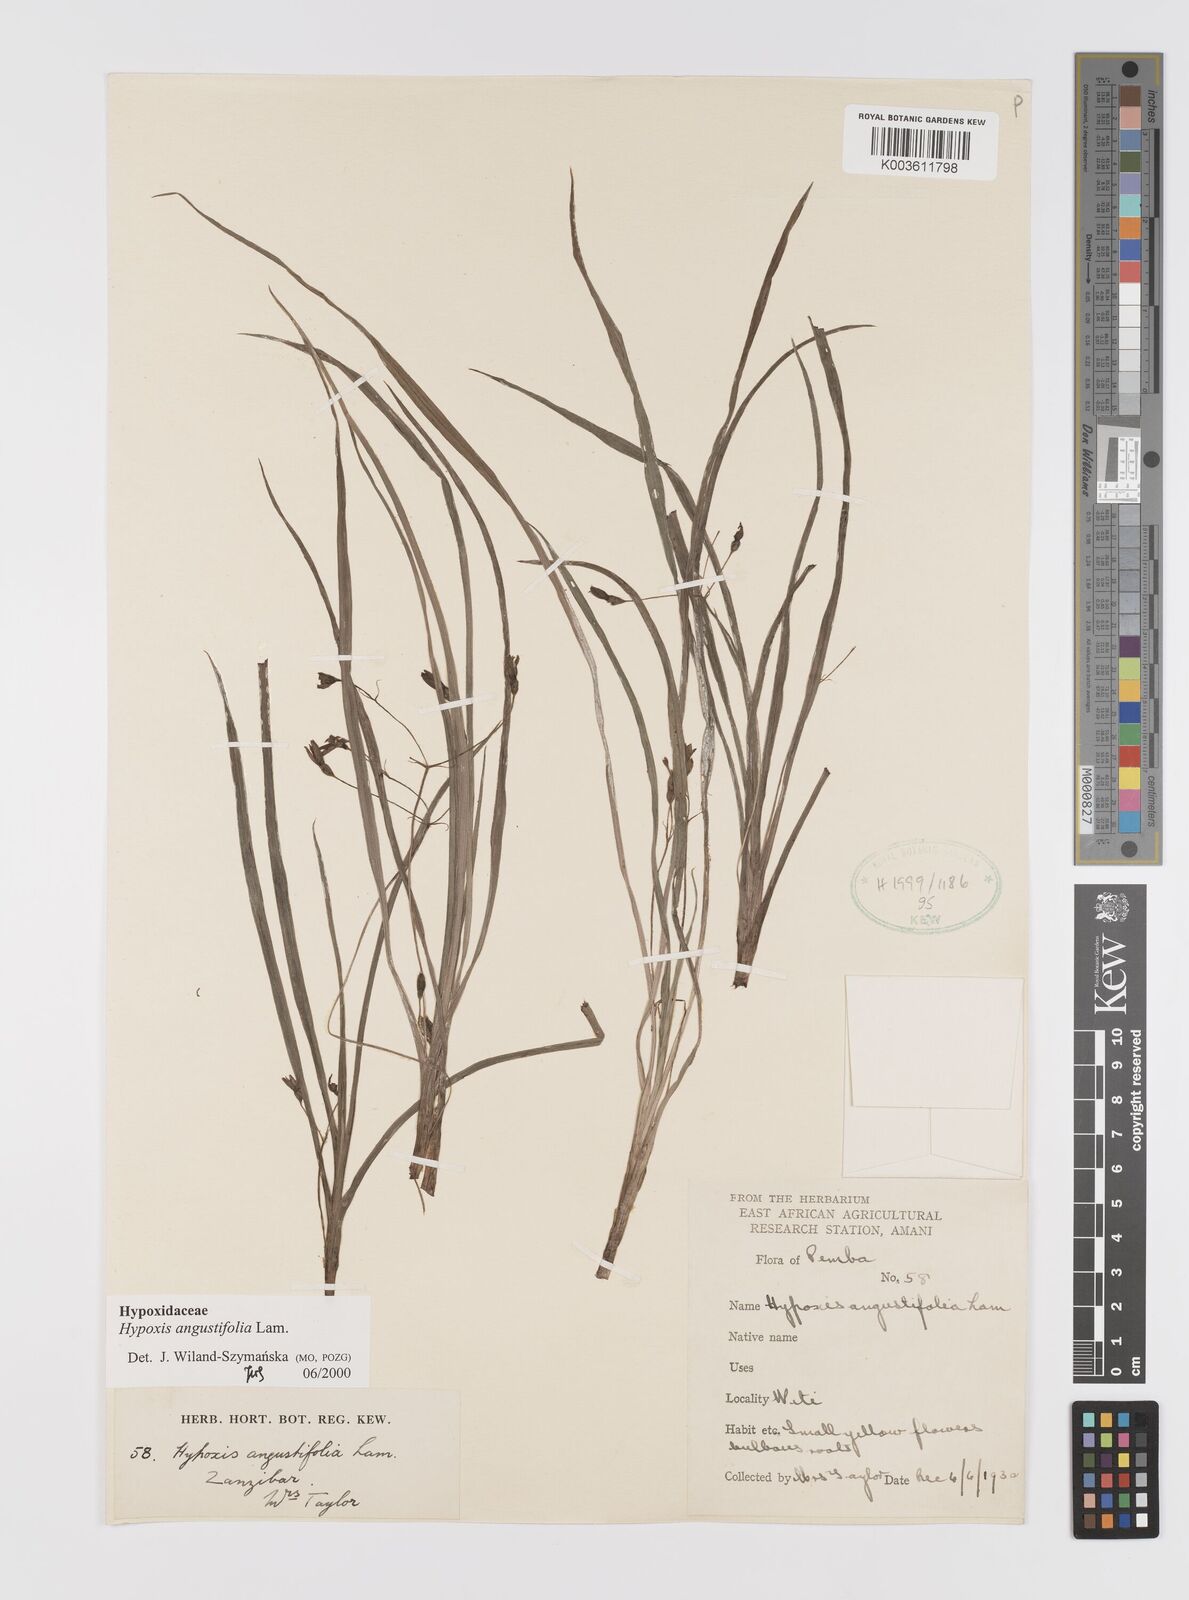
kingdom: Plantae
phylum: Tracheophyta
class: Liliopsida
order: Asparagales
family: Hypoxidaceae
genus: Hypoxis
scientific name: Hypoxis angustifolia
